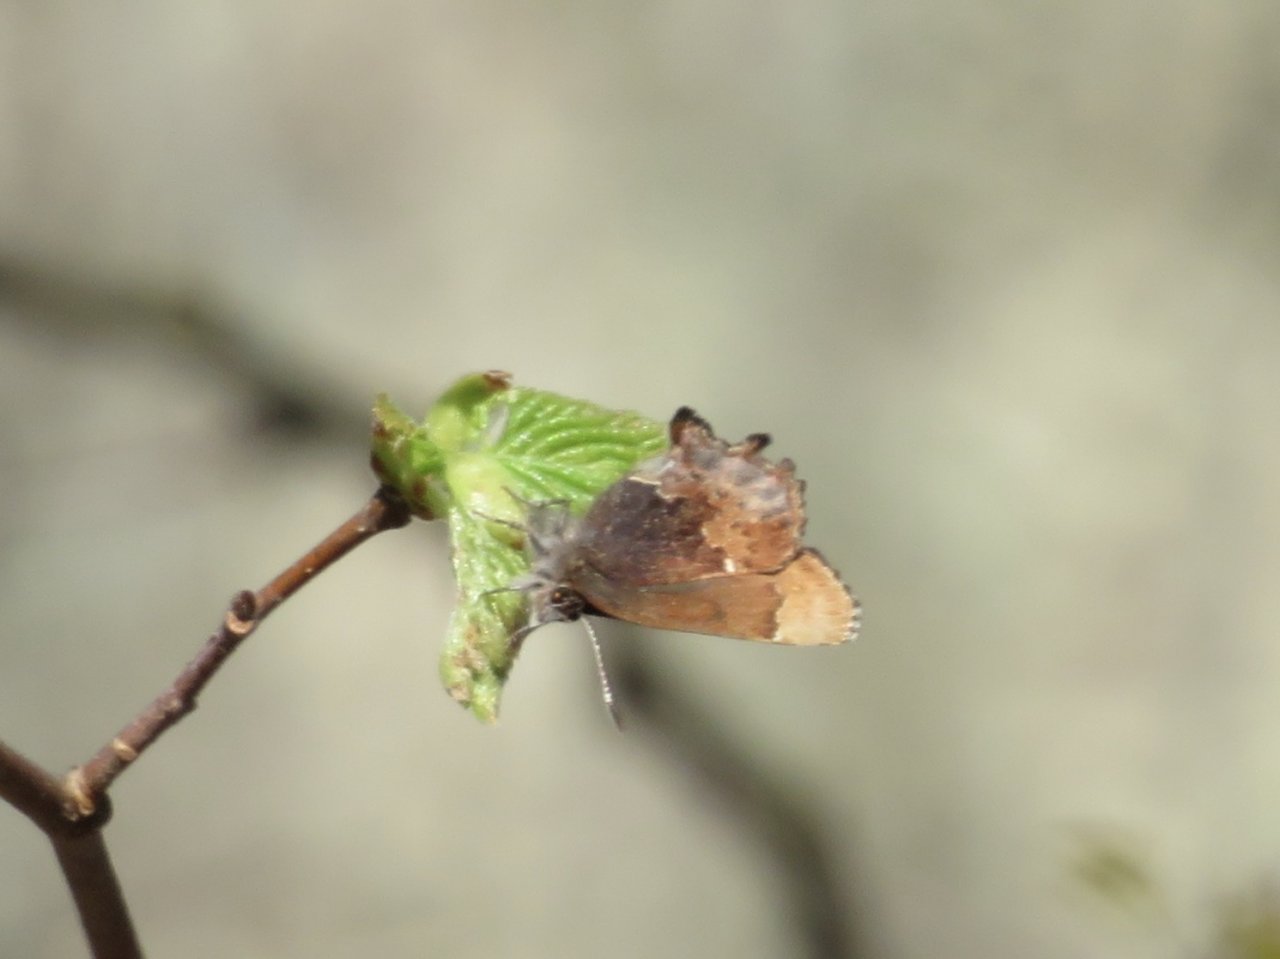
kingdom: Animalia
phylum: Arthropoda
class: Insecta
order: Lepidoptera
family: Lycaenidae
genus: Incisalia
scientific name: Incisalia henrici
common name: Henry's Elfin
